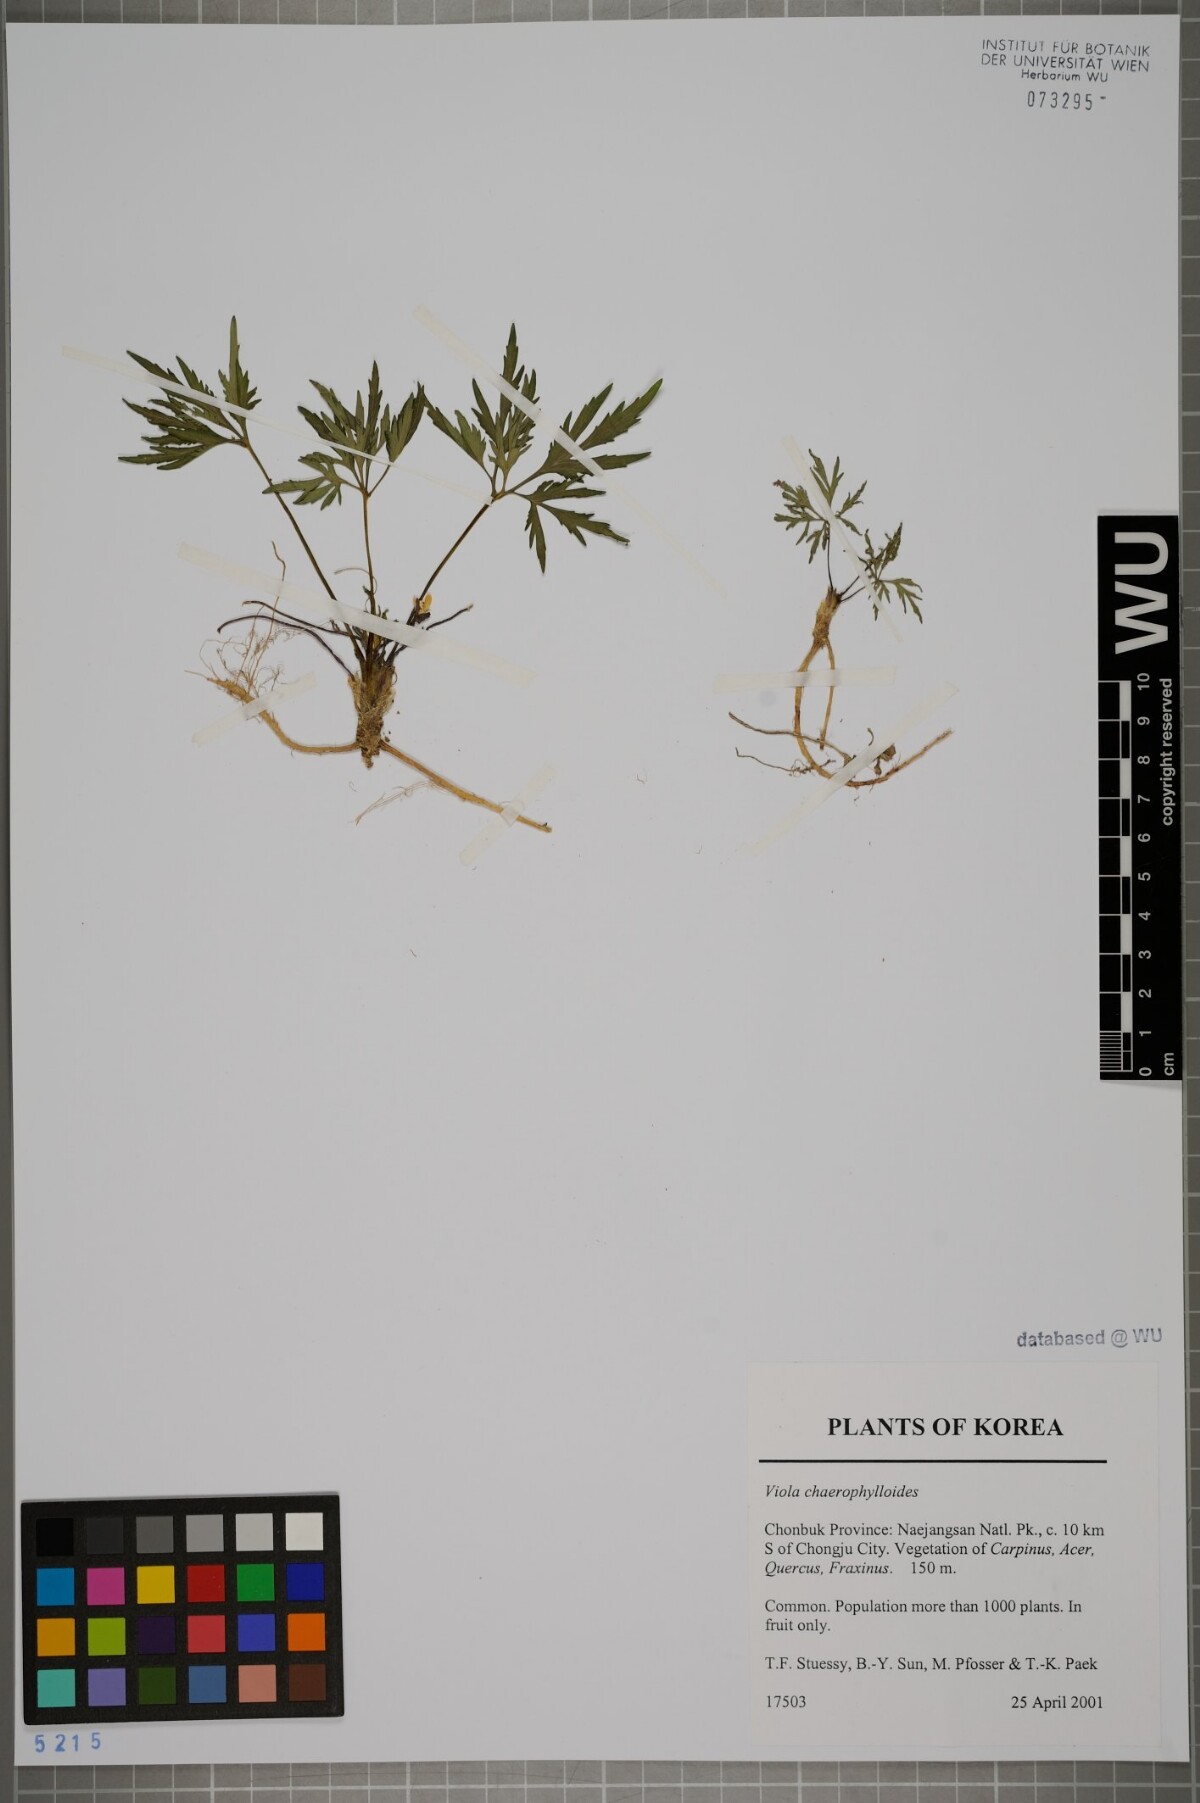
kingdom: Plantae
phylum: Tracheophyta
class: Magnoliopsida
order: Malpighiales
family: Violaceae
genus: Viola
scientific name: Viola albida
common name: Korean violet
